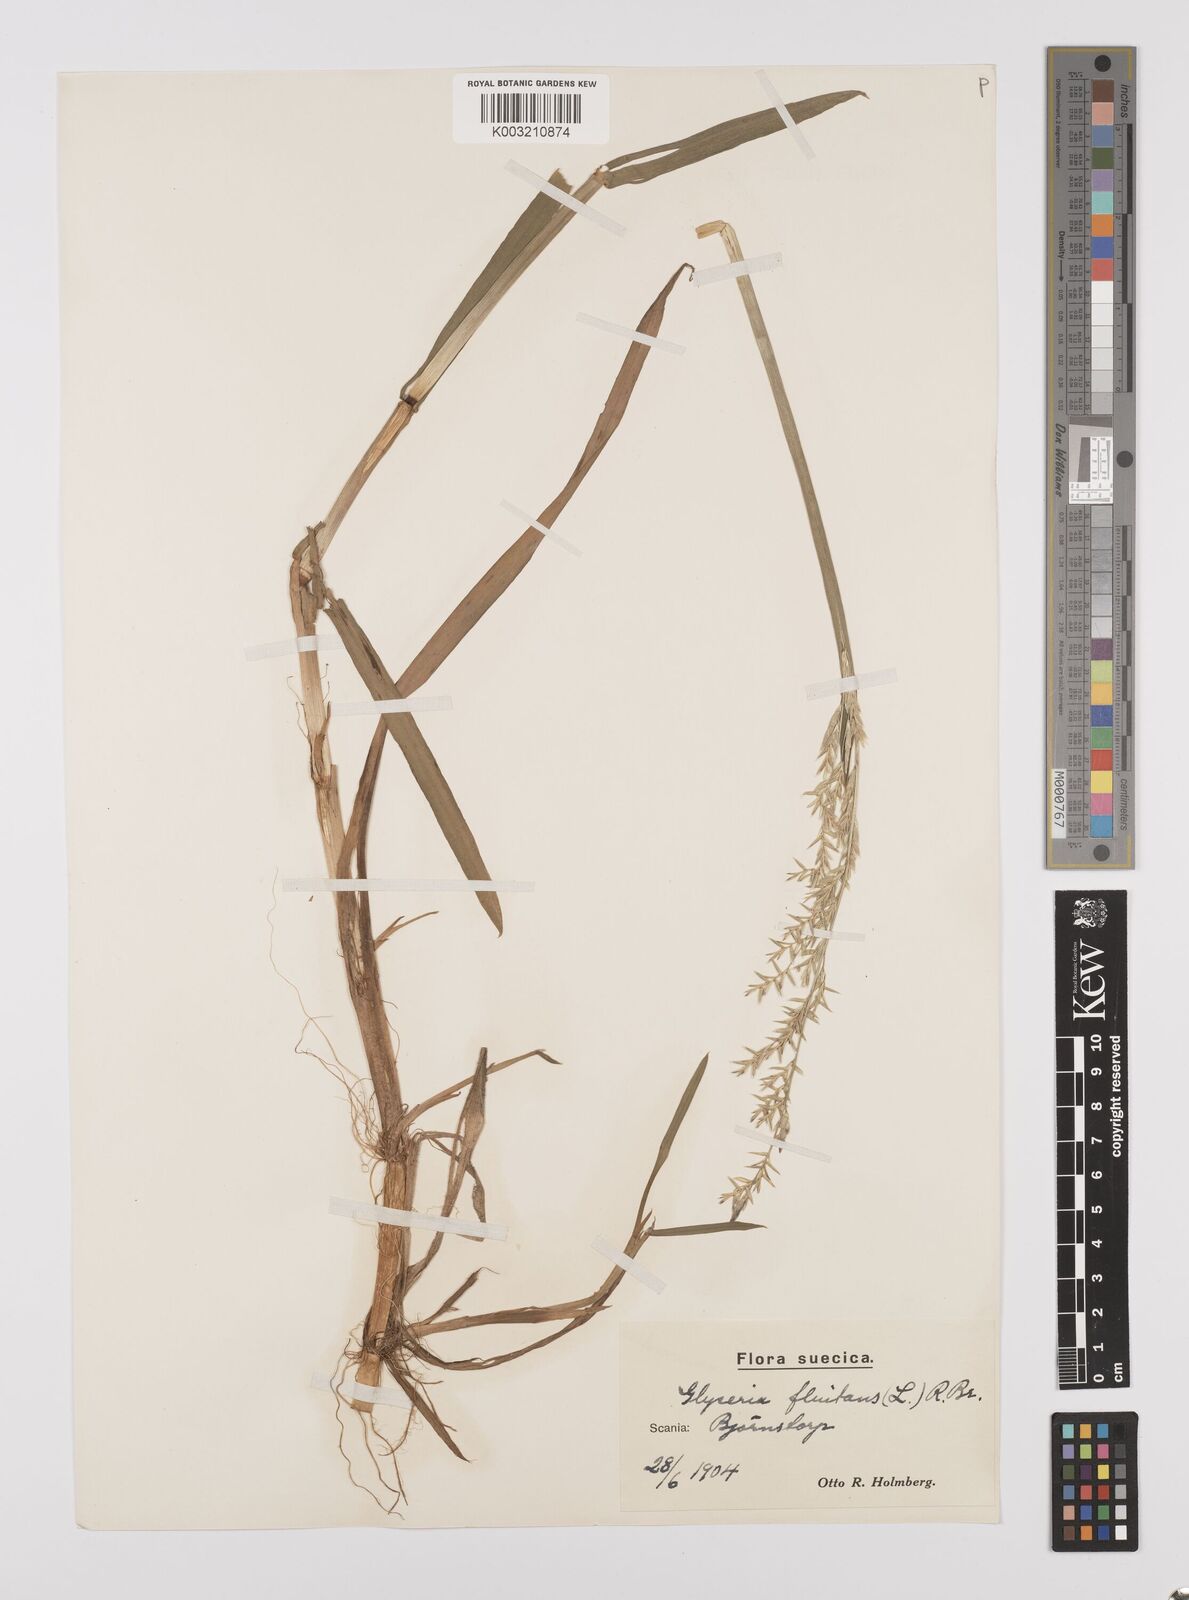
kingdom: Plantae
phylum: Tracheophyta
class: Liliopsida
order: Poales
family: Poaceae
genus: Glyceria
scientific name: Glyceria fluitans
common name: Floating sweet-grass
